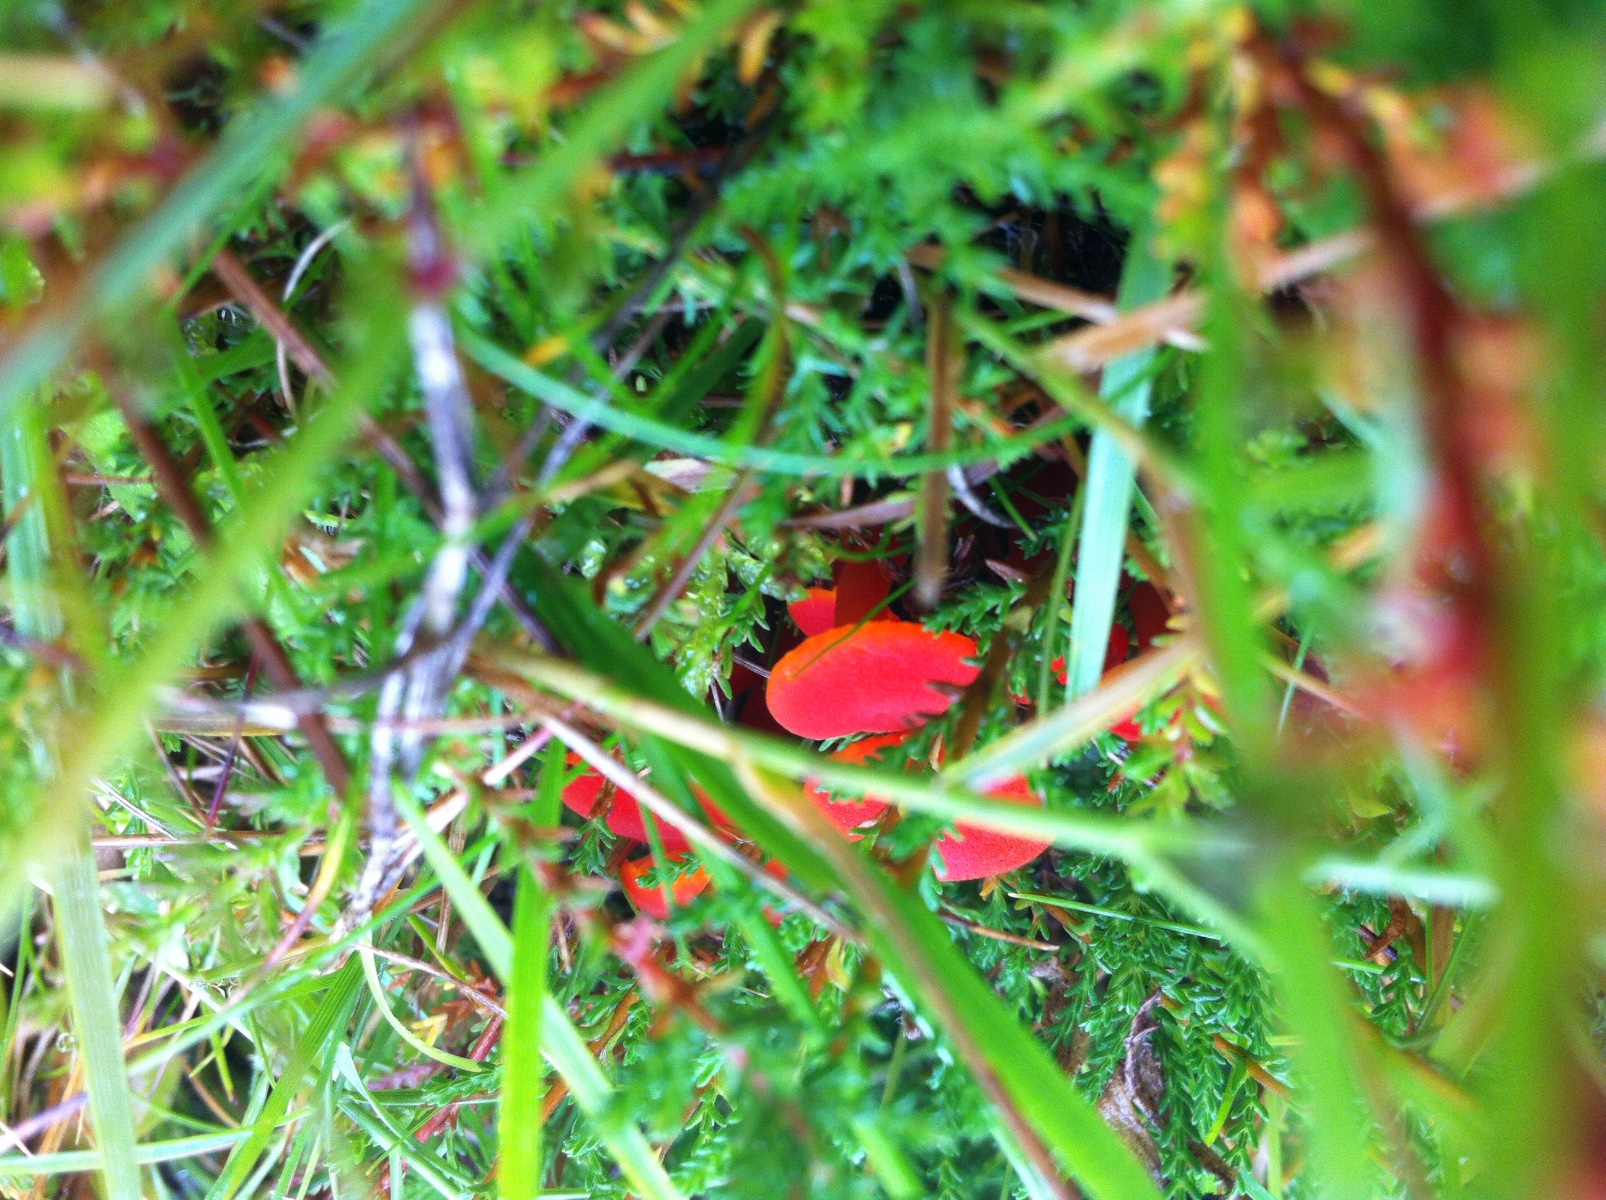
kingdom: Fungi
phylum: Basidiomycota
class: Agaricomycetes
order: Agaricales
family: Hygrophoraceae
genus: Hygrocybe
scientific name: Hygrocybe
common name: vokshat
